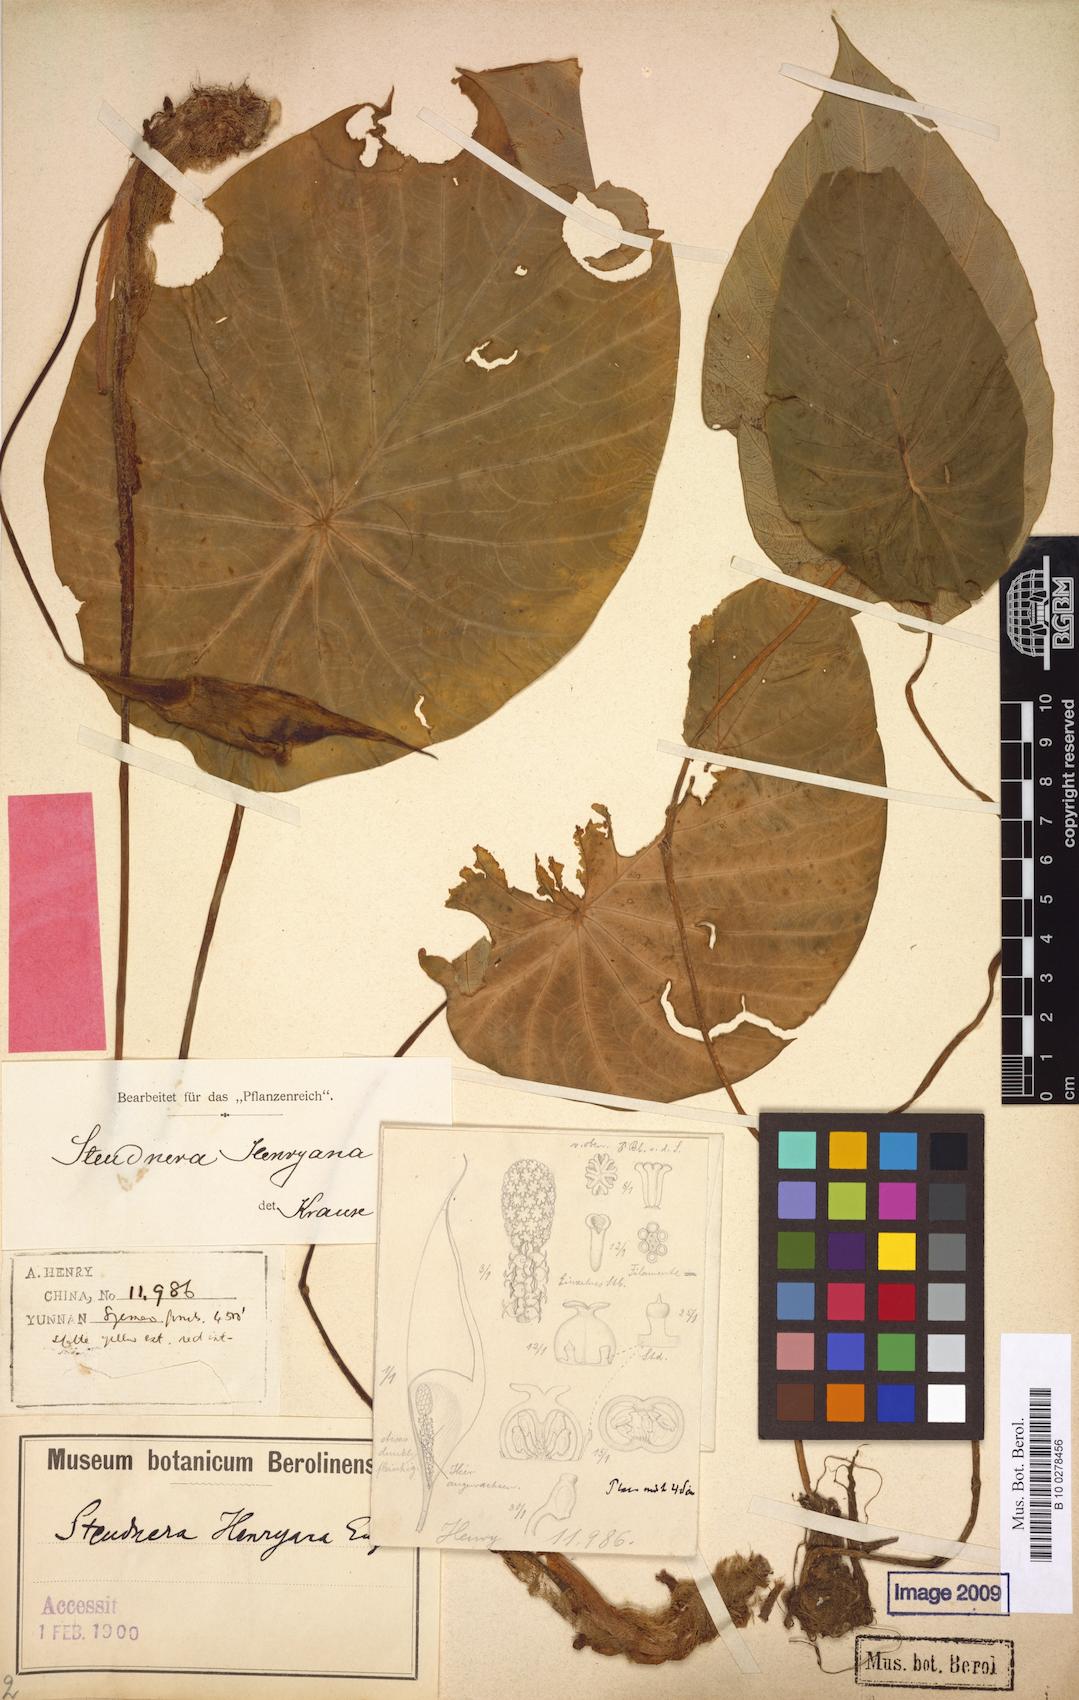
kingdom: Plantae
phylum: Tracheophyta
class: Liliopsida
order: Alismatales
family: Araceae
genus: Steudnera
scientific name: Steudnera henryana
